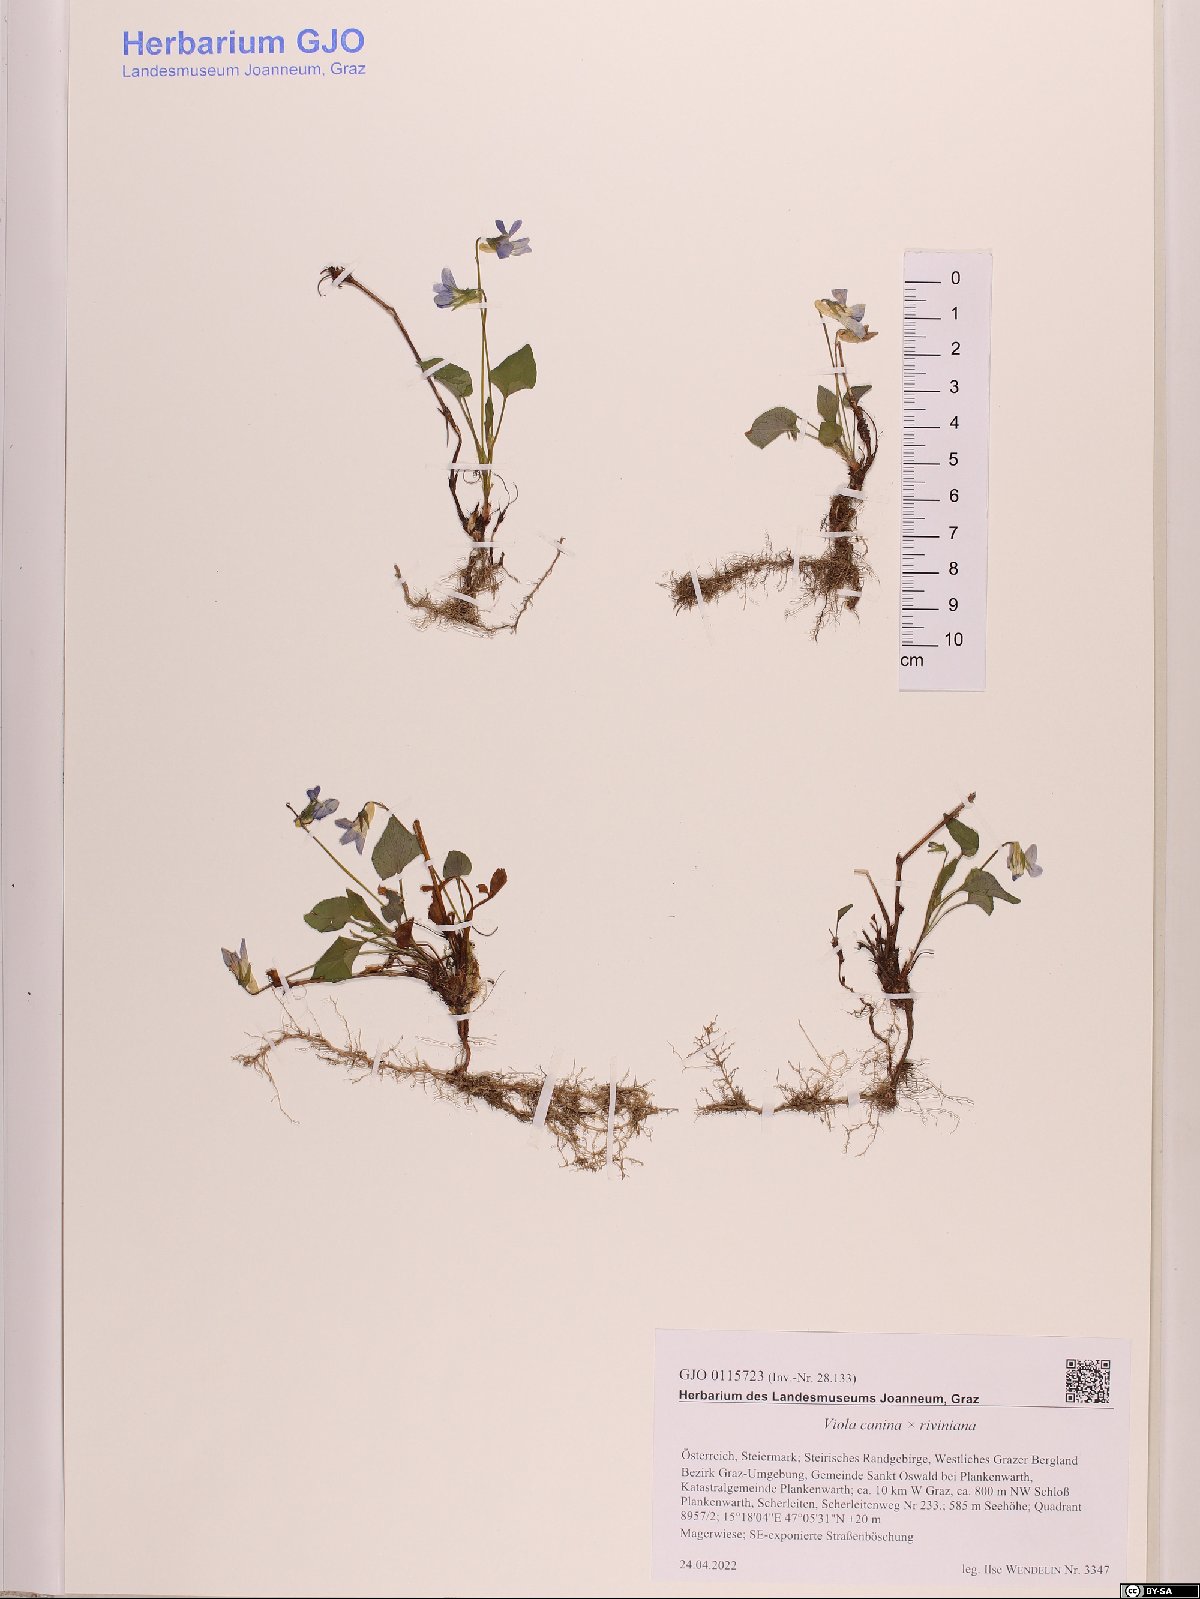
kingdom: Plantae
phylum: Tracheophyta
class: Magnoliopsida
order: Malpighiales
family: Violaceae
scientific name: Violaceae
